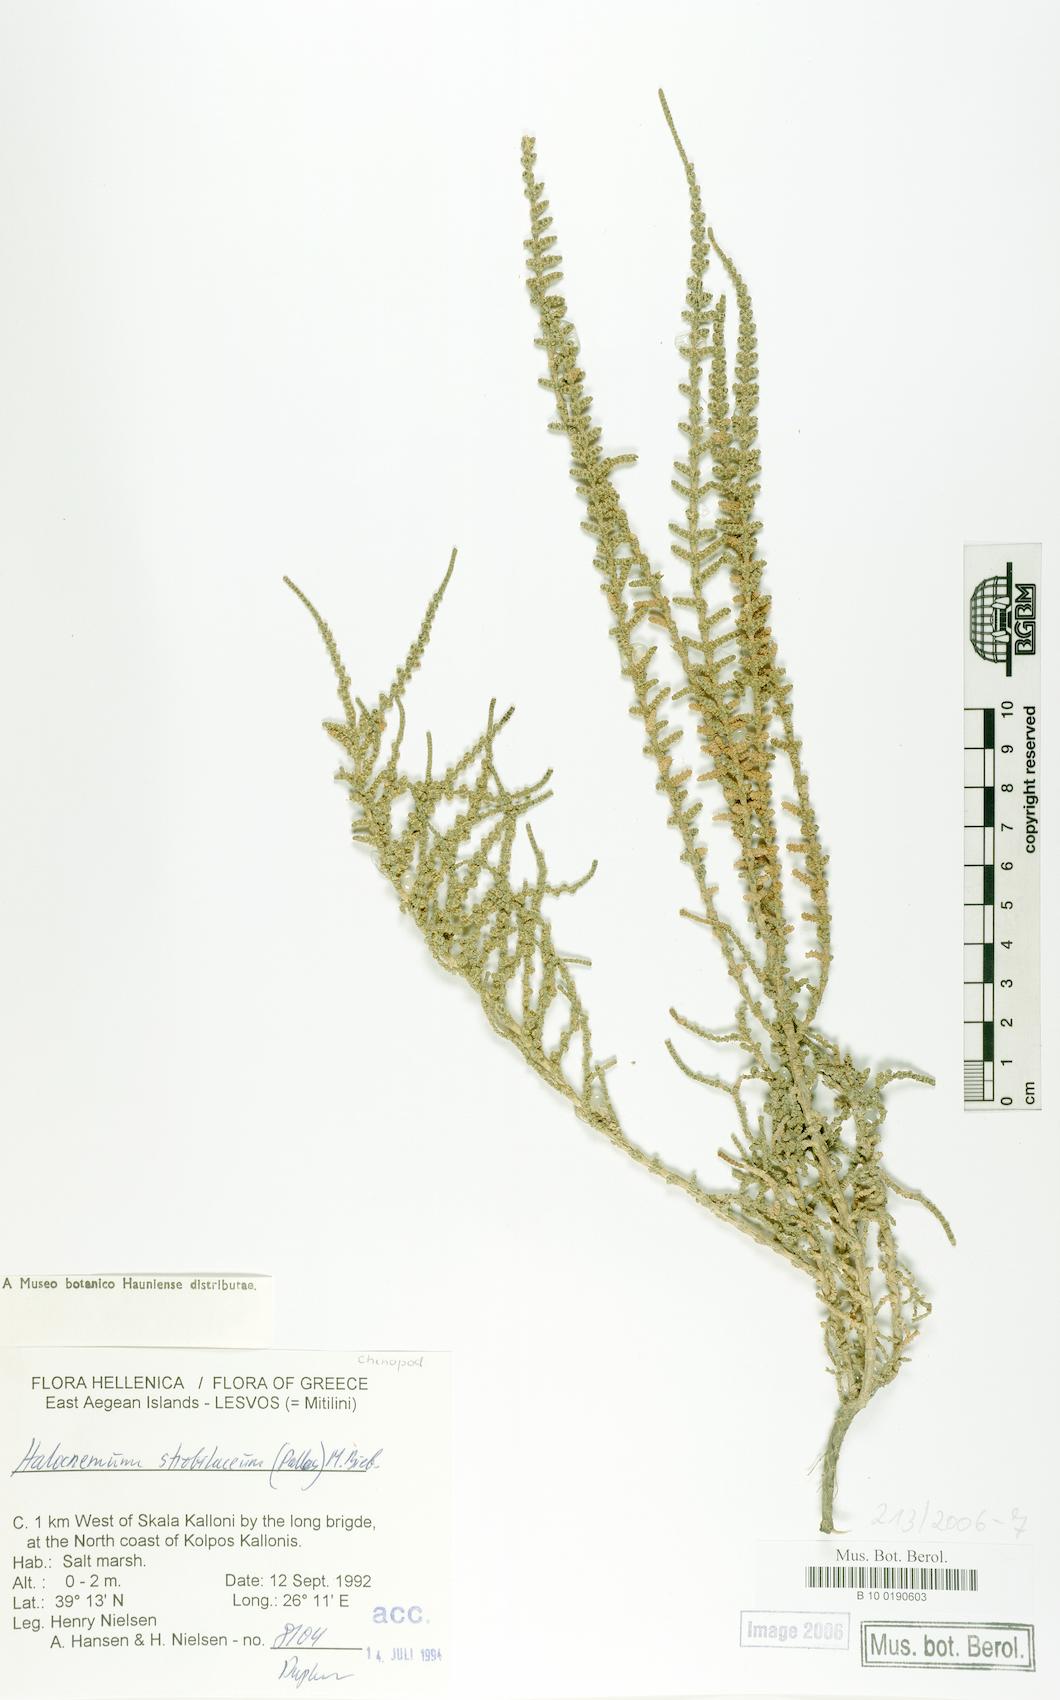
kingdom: Plantae
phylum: Tracheophyta
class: Magnoliopsida
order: Caryophyllales
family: Amaranthaceae
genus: Halocnemum
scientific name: Halocnemum strobilaceum
